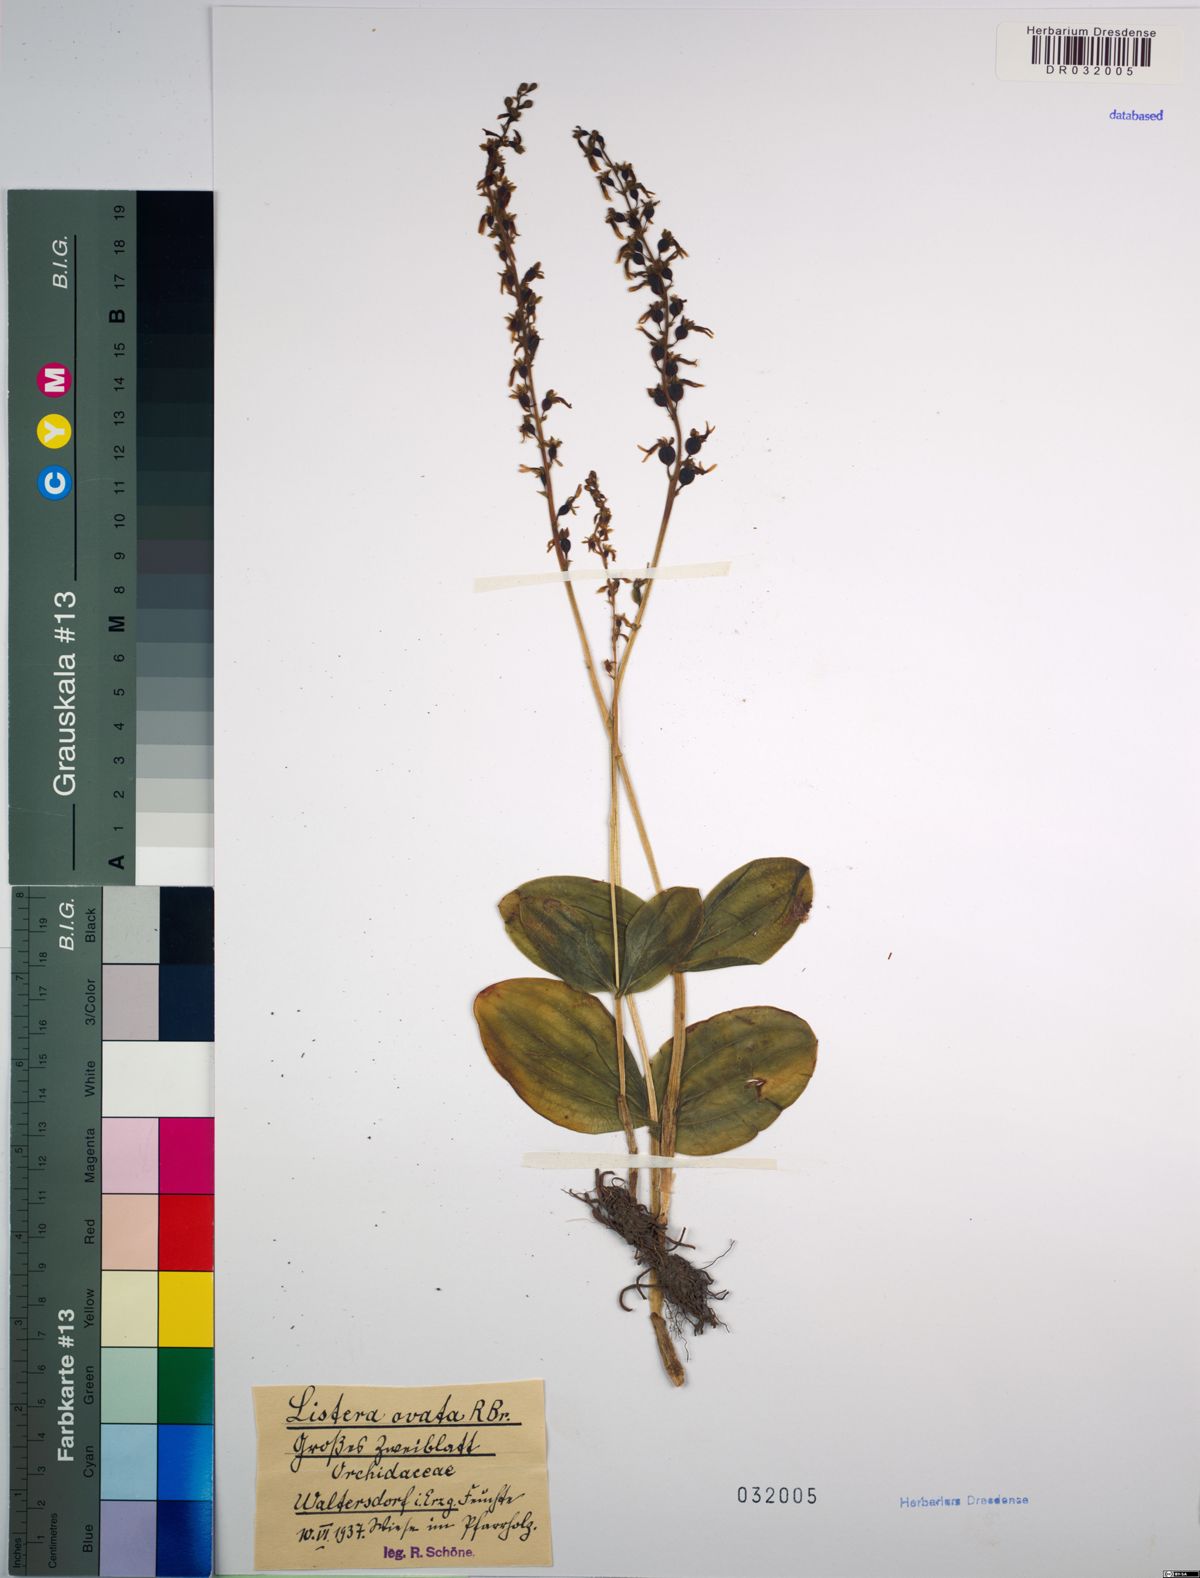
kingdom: Plantae
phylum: Tracheophyta
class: Liliopsida
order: Asparagales
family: Orchidaceae
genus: Neottia
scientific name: Neottia ovata
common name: Common twayblade
